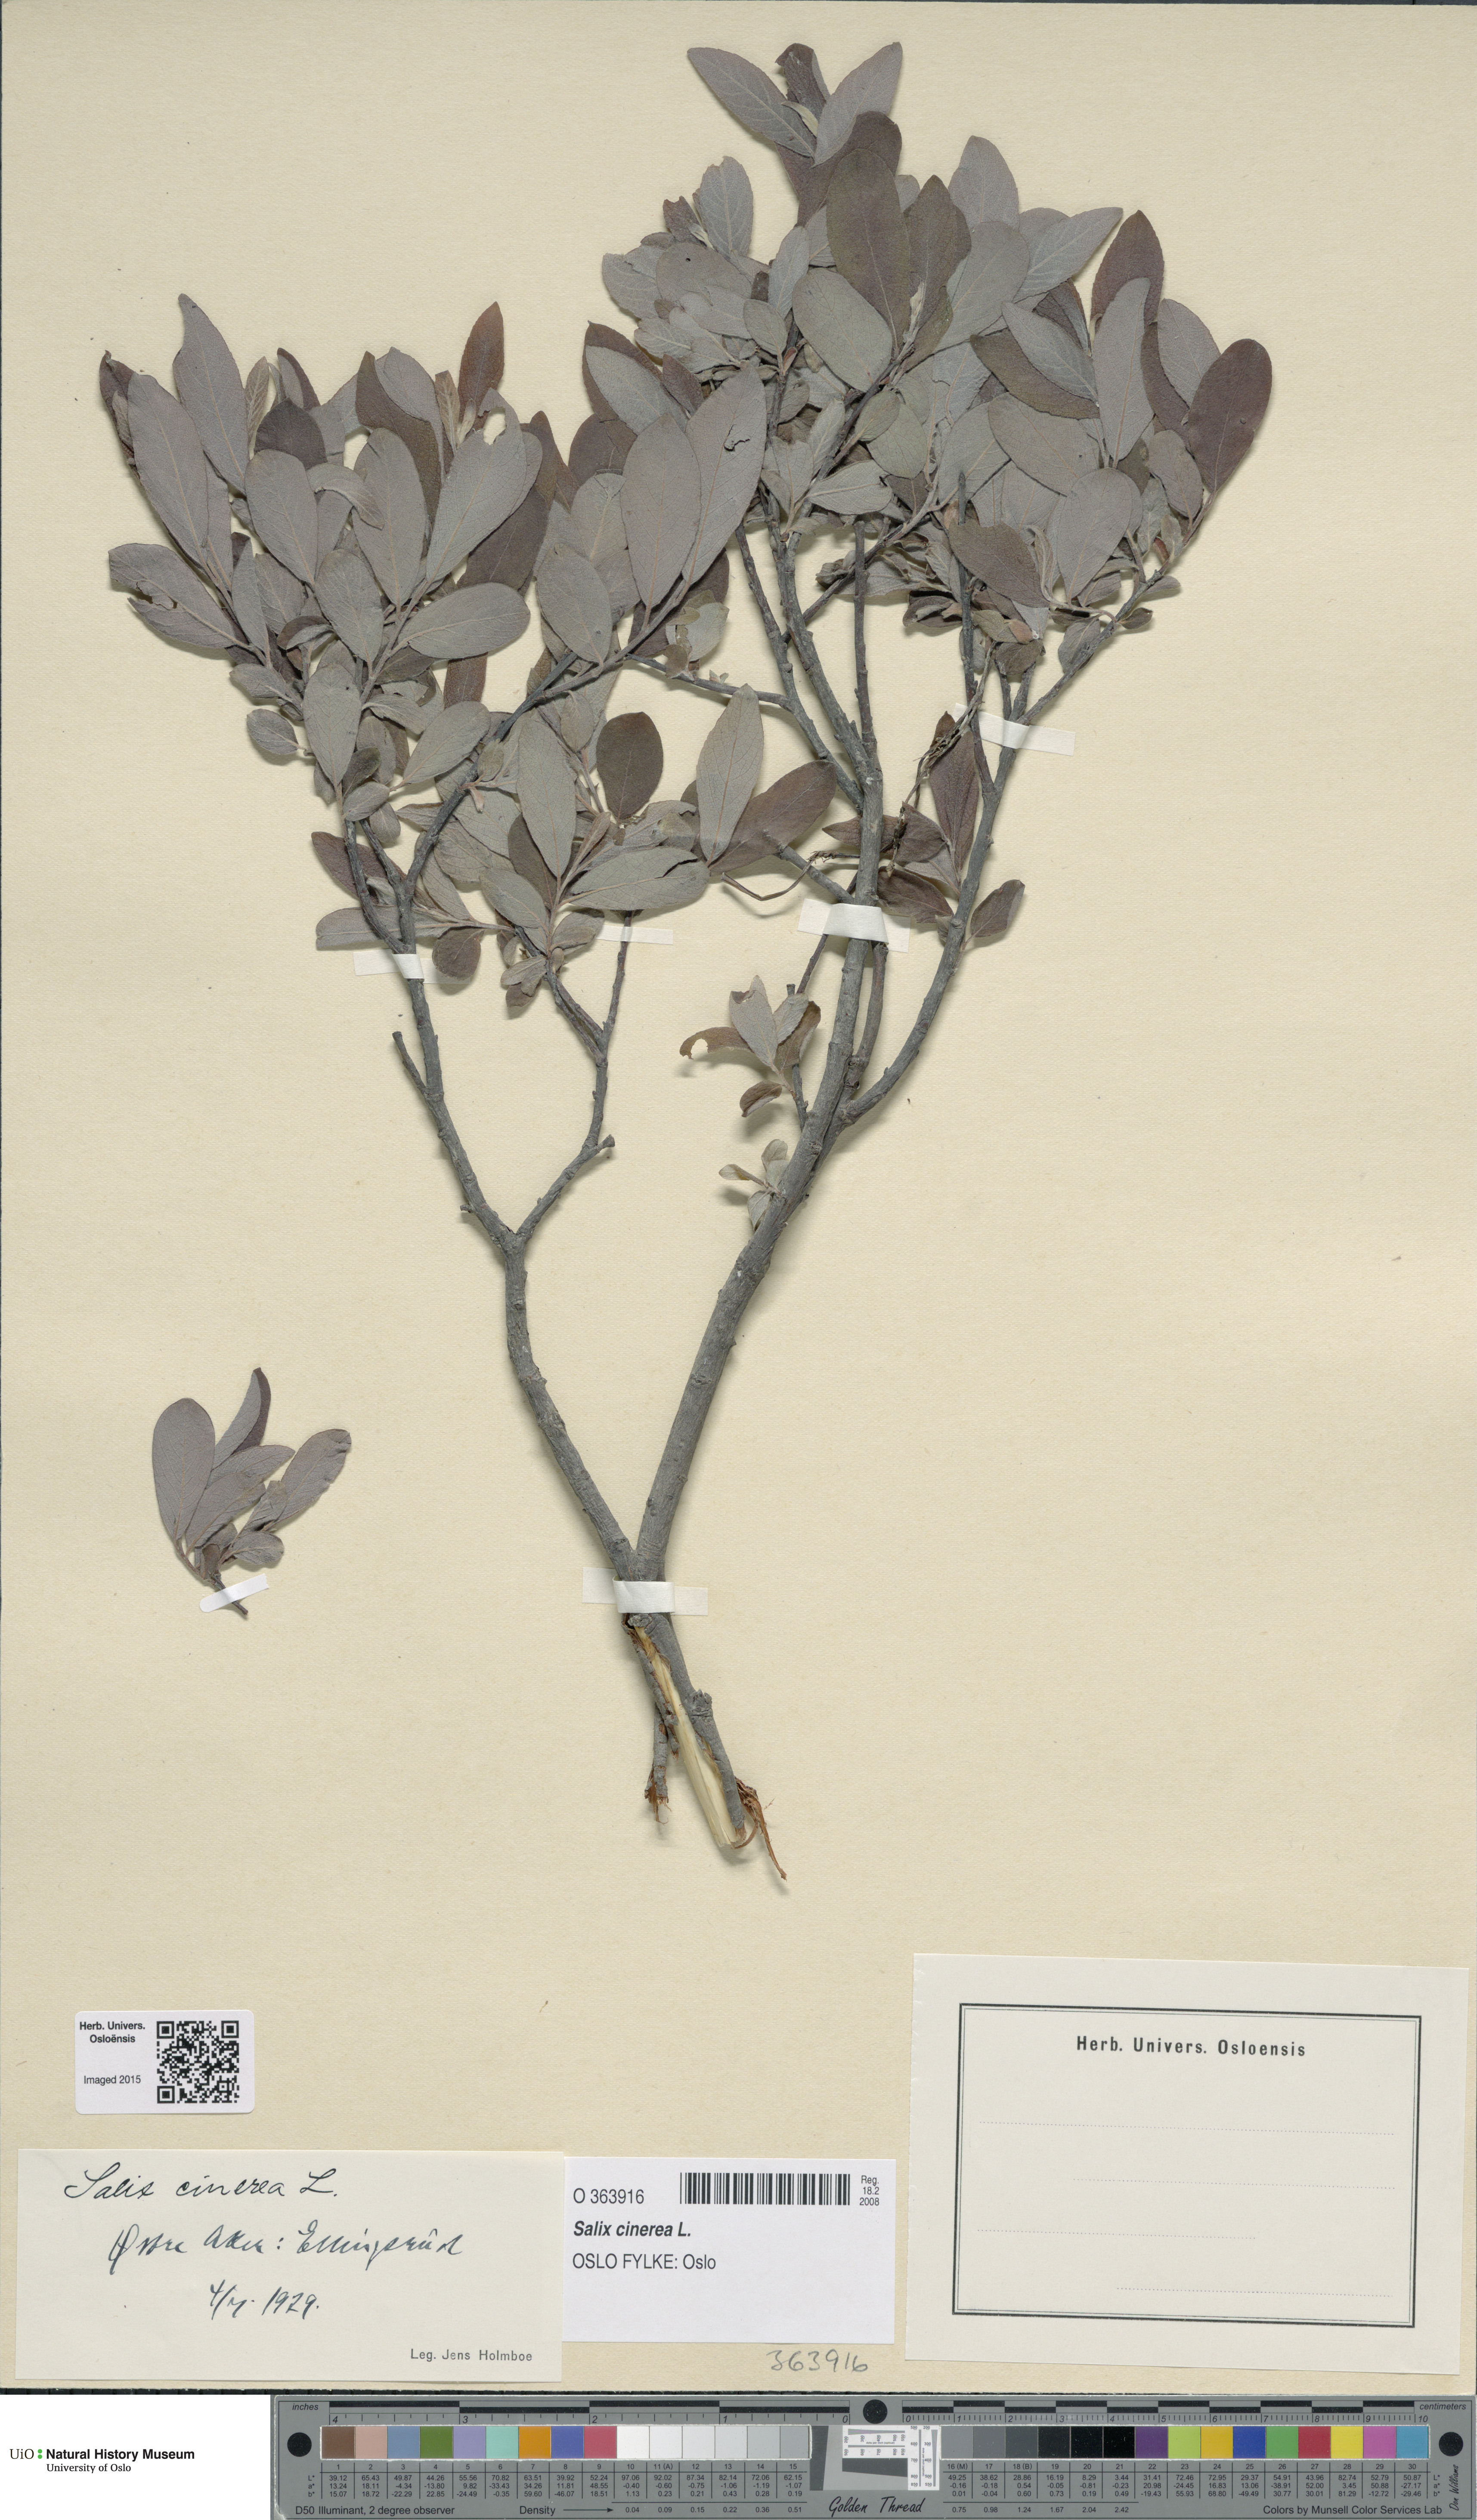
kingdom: Plantae
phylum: Tracheophyta
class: Magnoliopsida
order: Malpighiales
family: Salicaceae
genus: Salix
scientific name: Salix cinerea
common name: Common sallow
